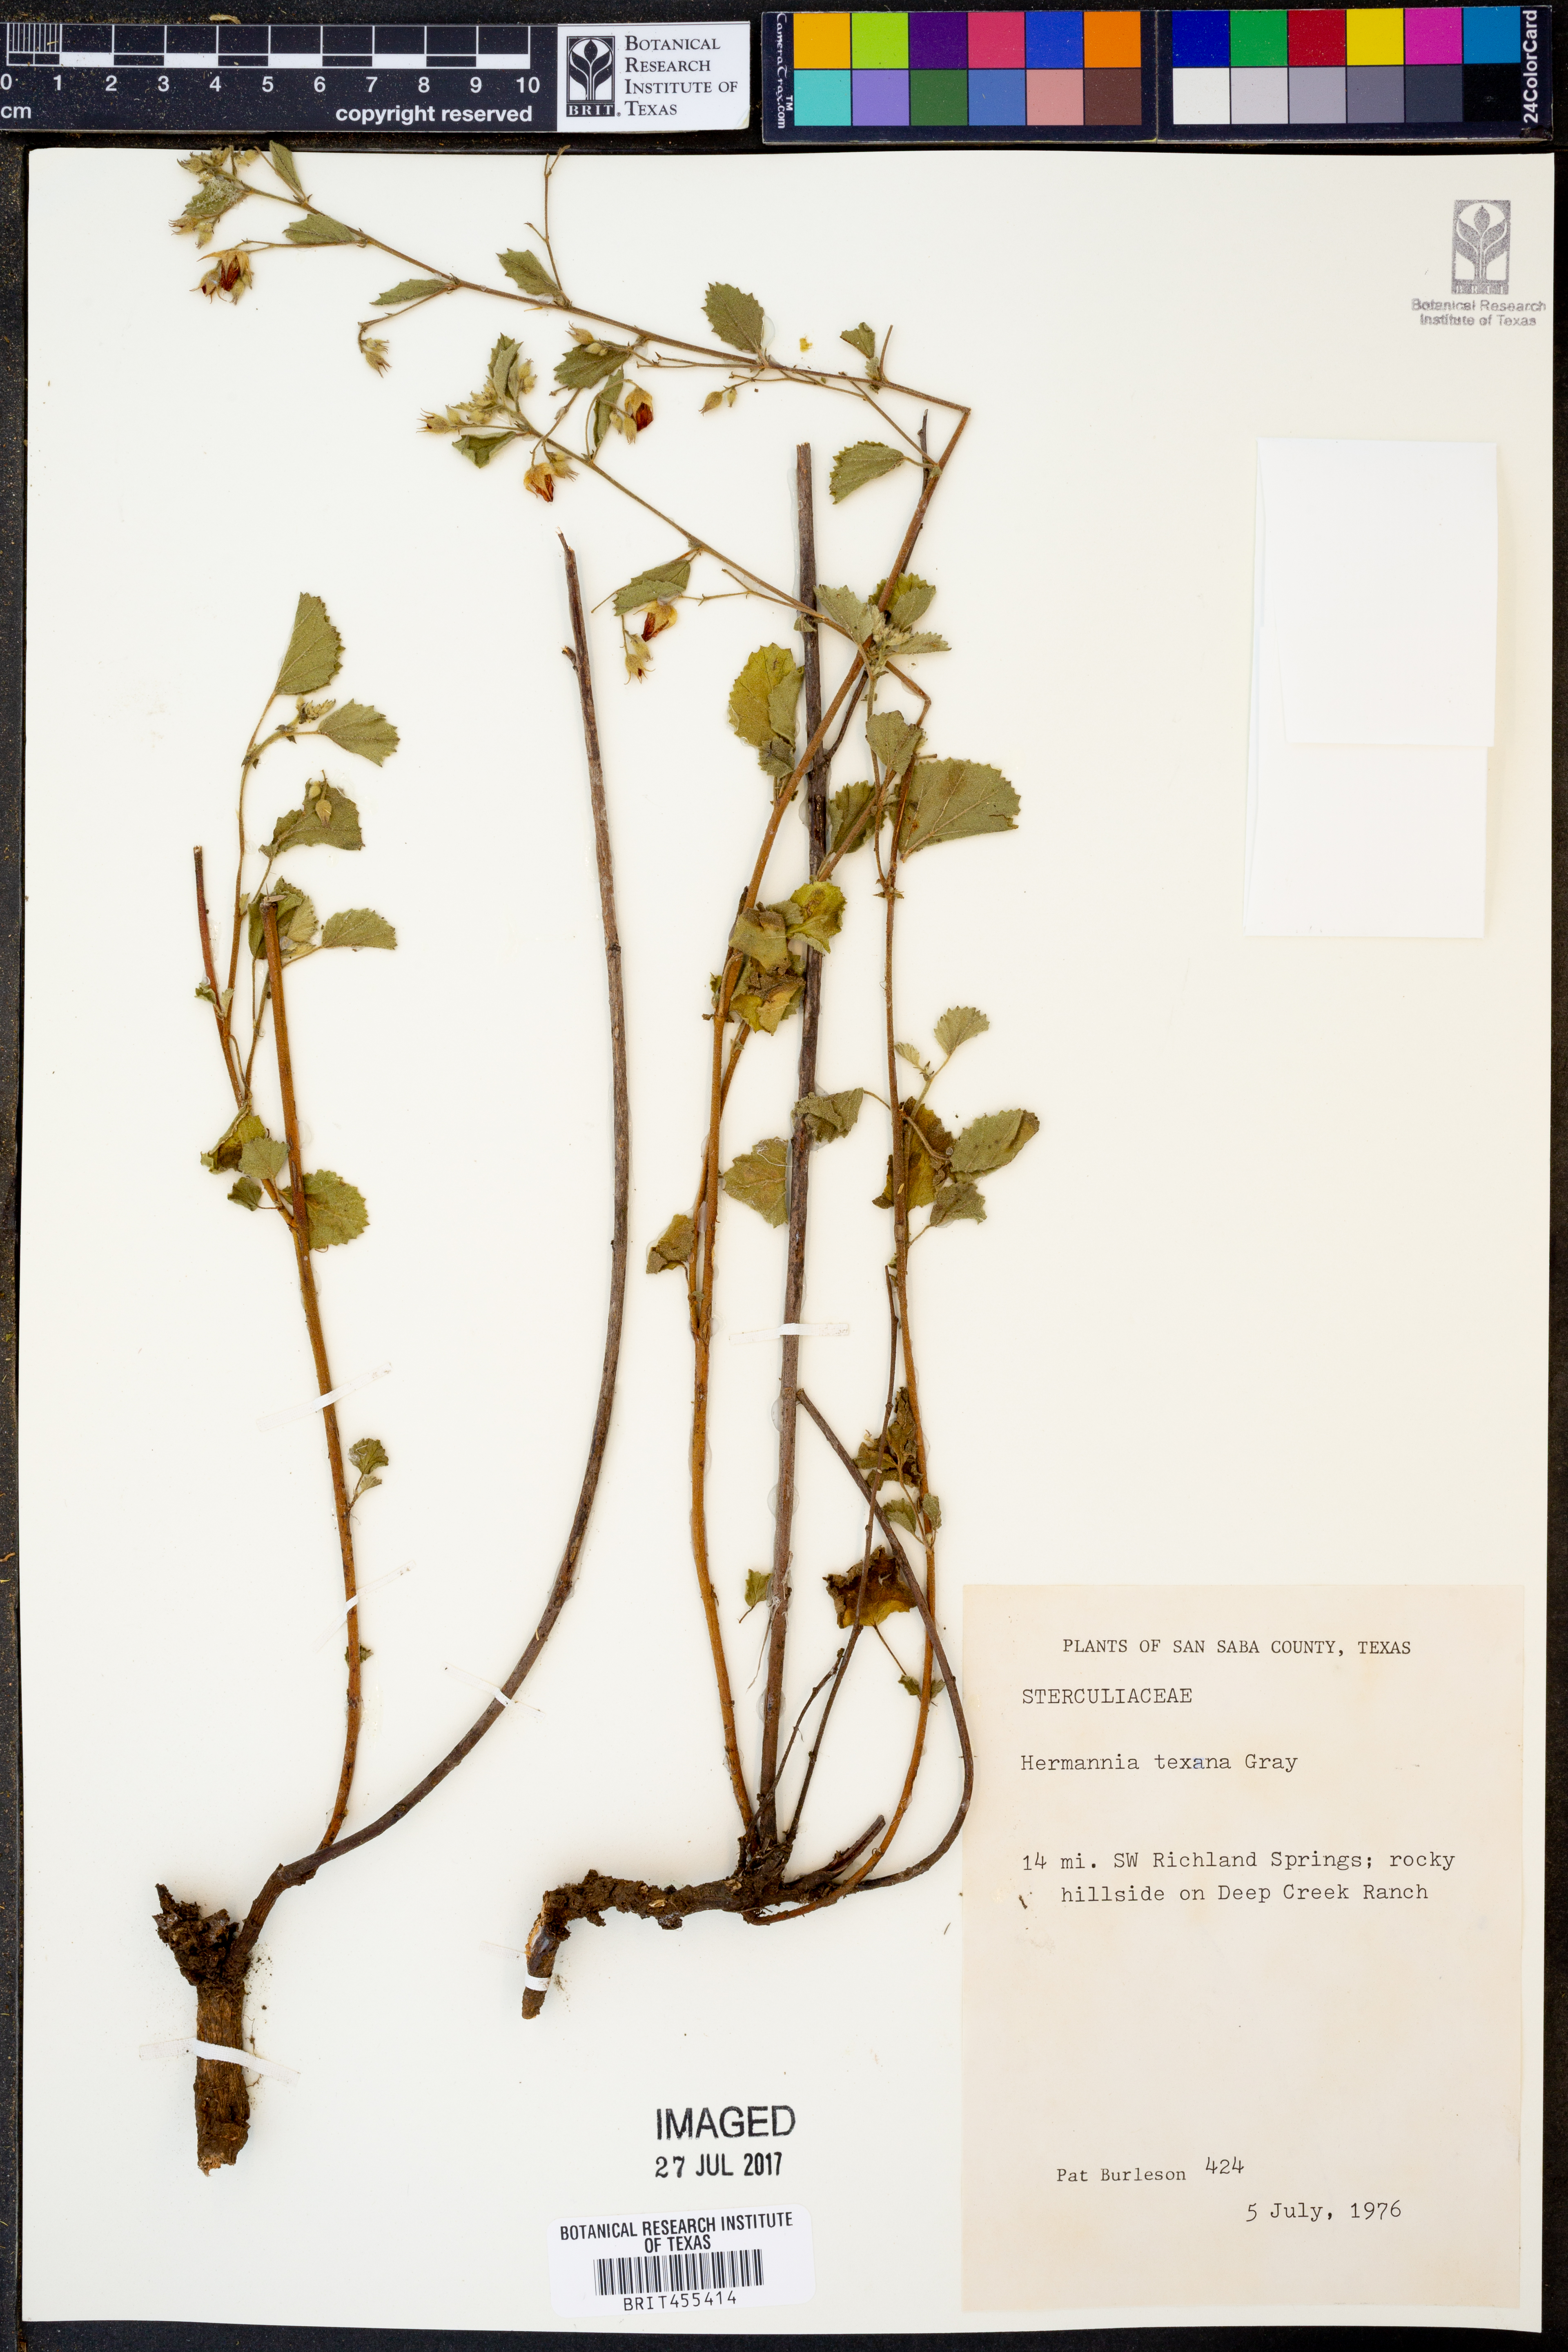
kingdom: Plantae
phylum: Tracheophyta
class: Magnoliopsida
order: Malvales
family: Malvaceae
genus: Hermannia
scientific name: Hermannia texana
